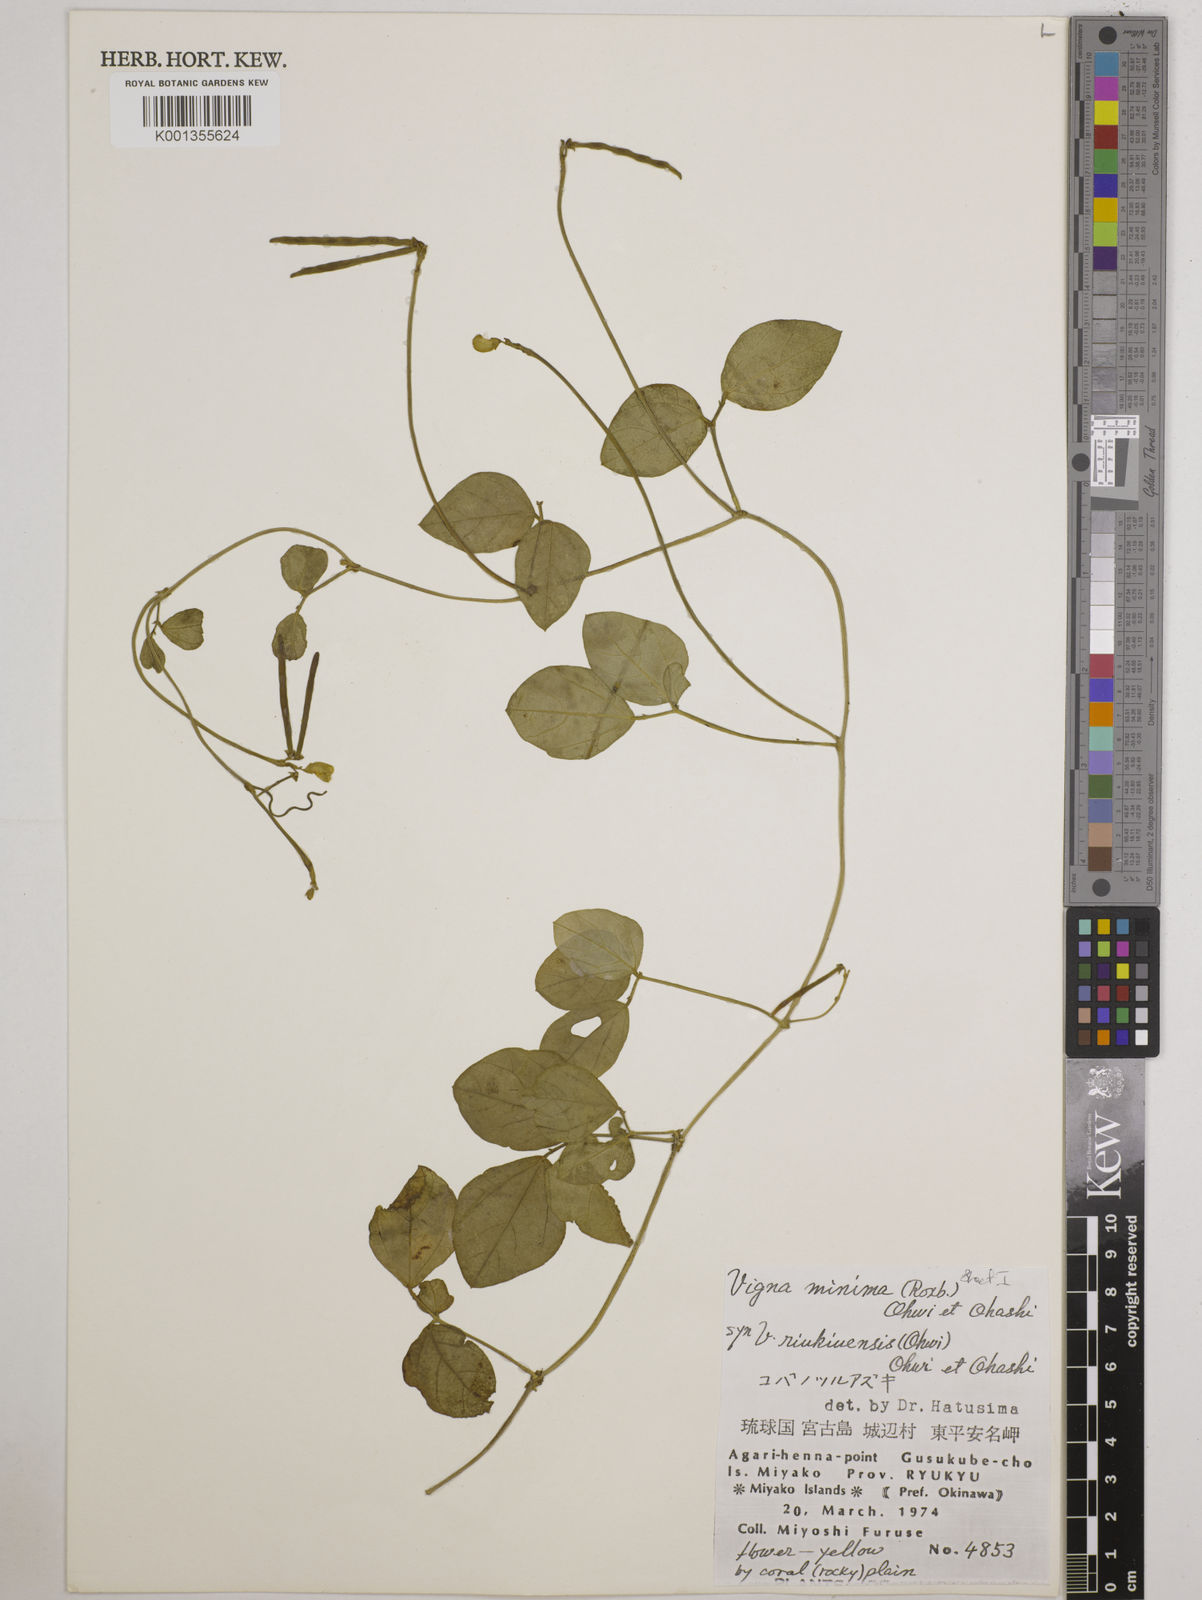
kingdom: Plantae
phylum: Tracheophyta
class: Magnoliopsida
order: Fabales
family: Fabaceae
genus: Vigna
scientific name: Vigna minima
